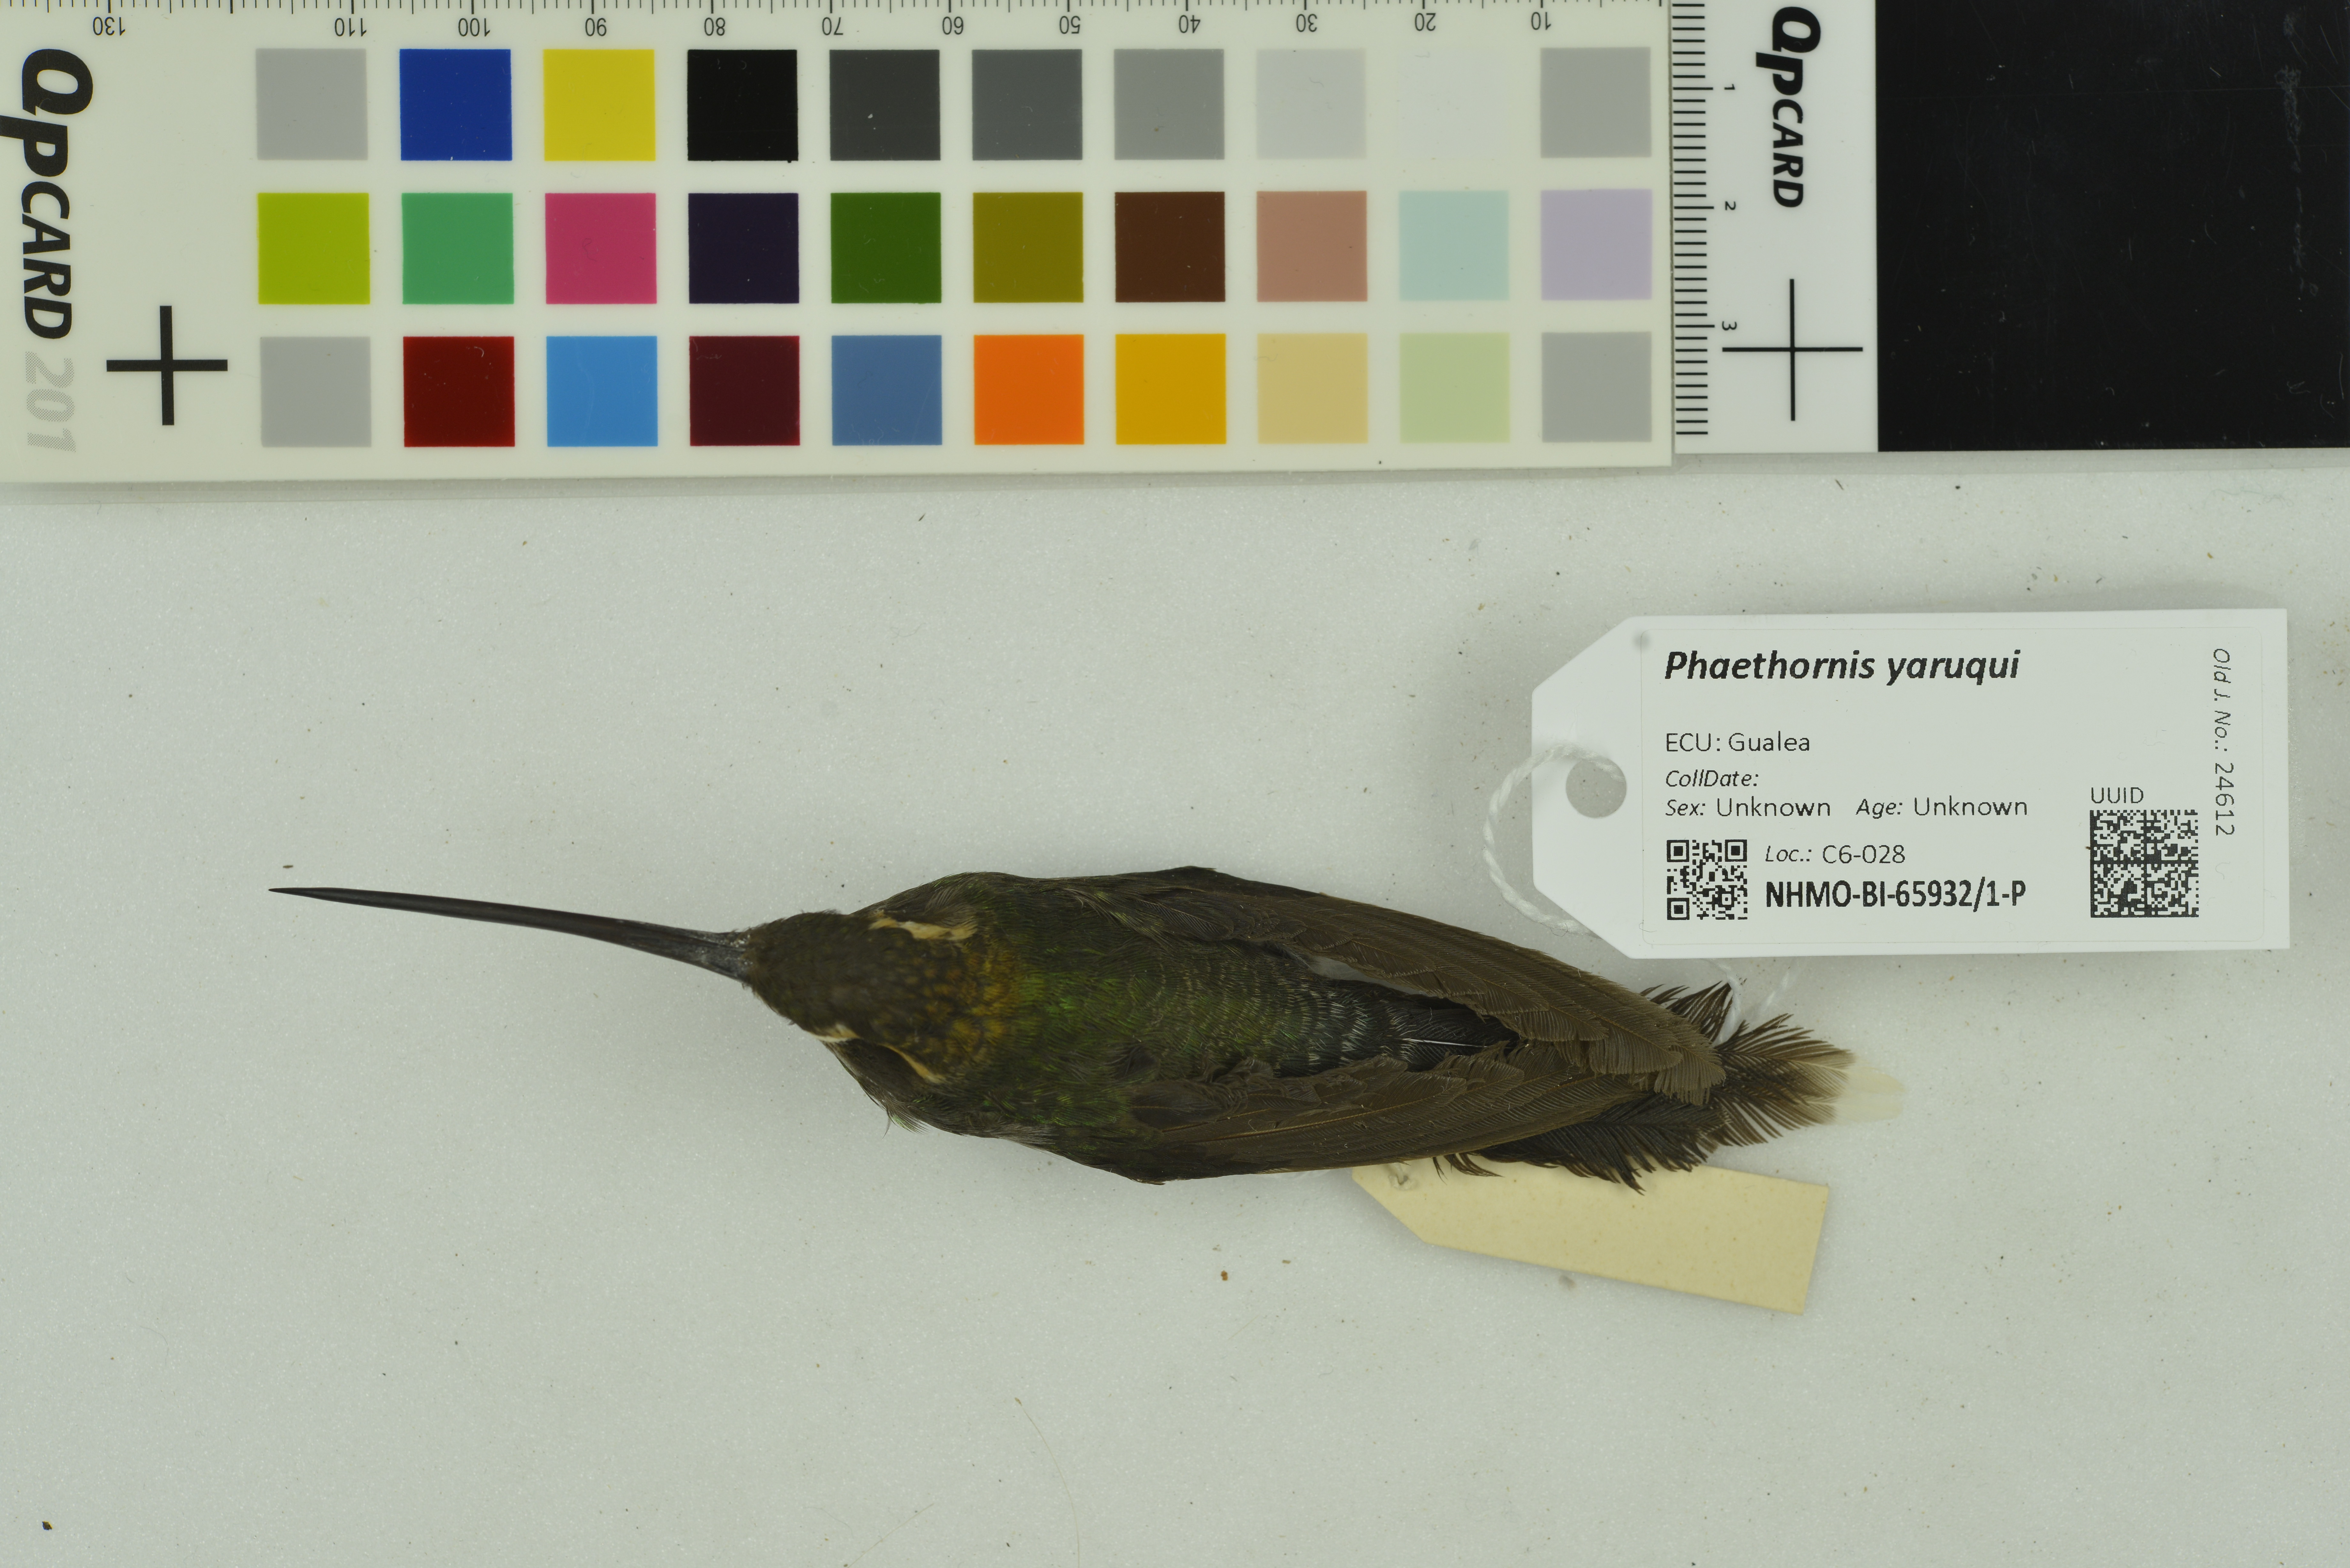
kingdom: Animalia
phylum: Chordata
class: Aves
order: Apodiformes
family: Trochilidae
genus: Phaethornis
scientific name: Phaethornis yaruqui
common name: White-whiskered hermit
